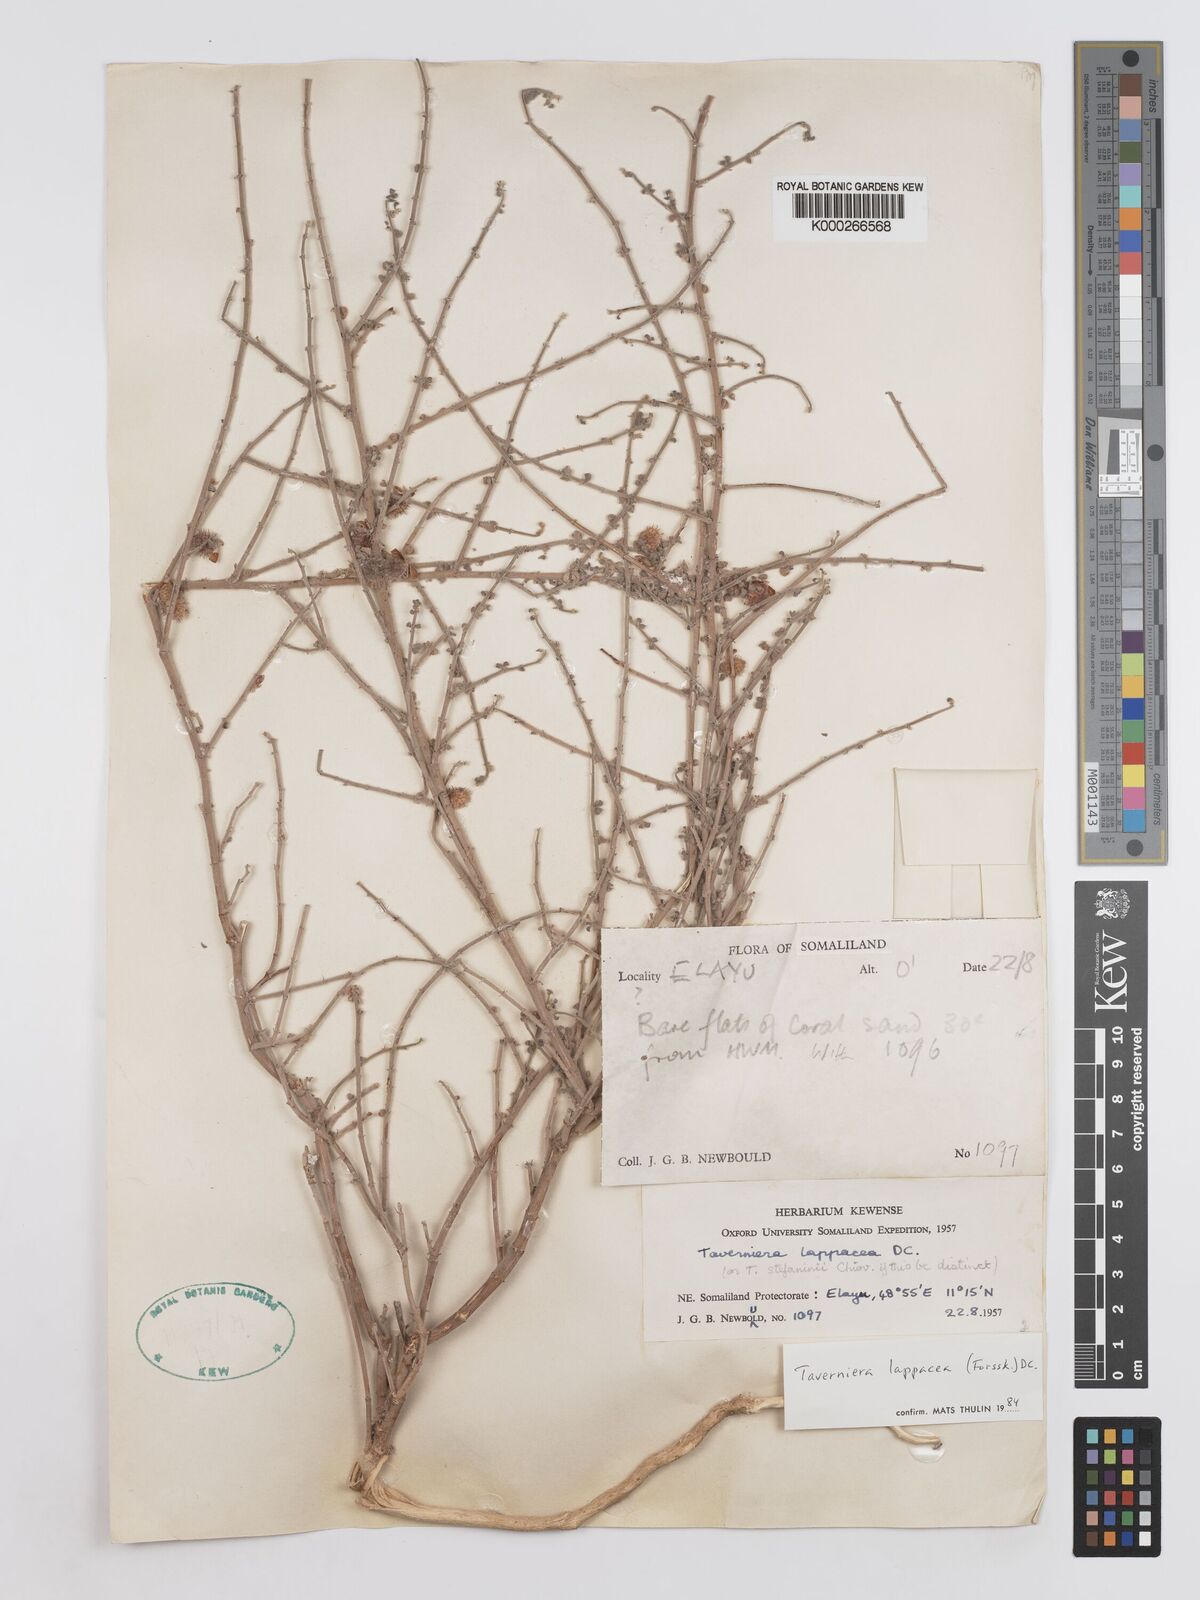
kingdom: Plantae
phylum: Tracheophyta
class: Magnoliopsida
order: Fabales
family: Fabaceae
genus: Taverniera
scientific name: Taverniera lappacea
